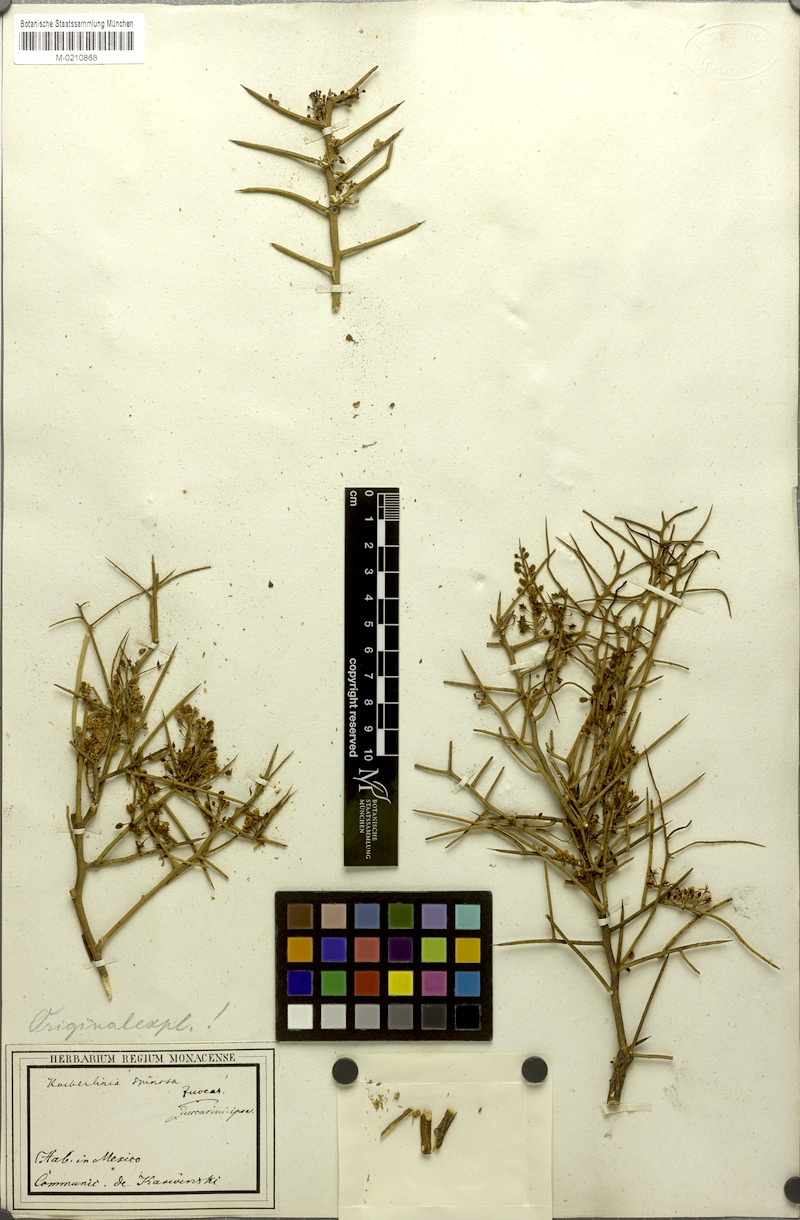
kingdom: Plantae
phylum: Tracheophyta
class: Magnoliopsida
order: Brassicales
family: Koeberliniaceae
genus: Koeberlinia
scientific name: Koeberlinia spinosa
